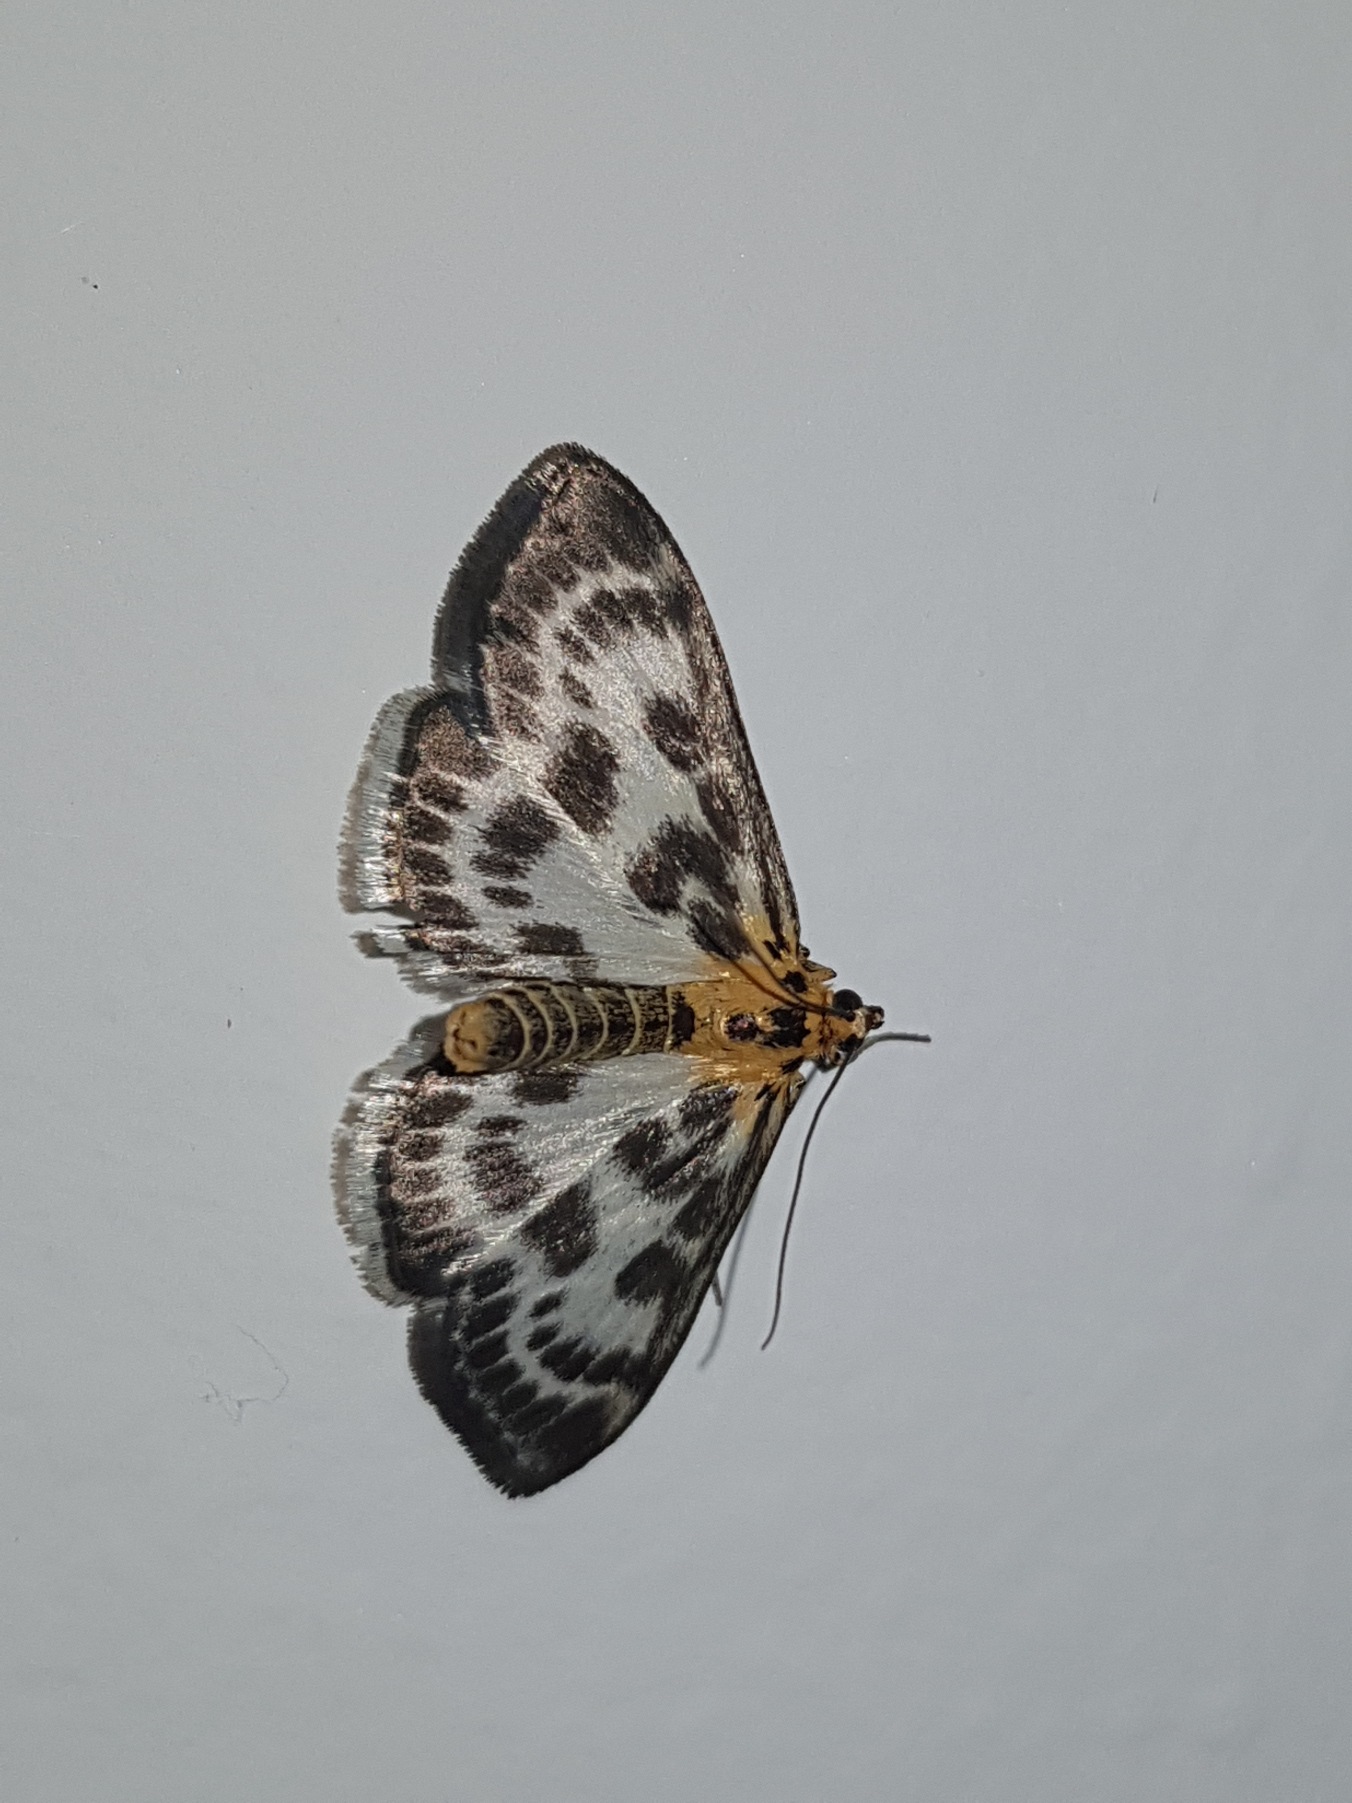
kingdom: Animalia
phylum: Arthropoda
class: Insecta
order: Lepidoptera
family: Crambidae
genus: Anania
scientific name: Anania hortulata
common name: Nældehalvmøl
